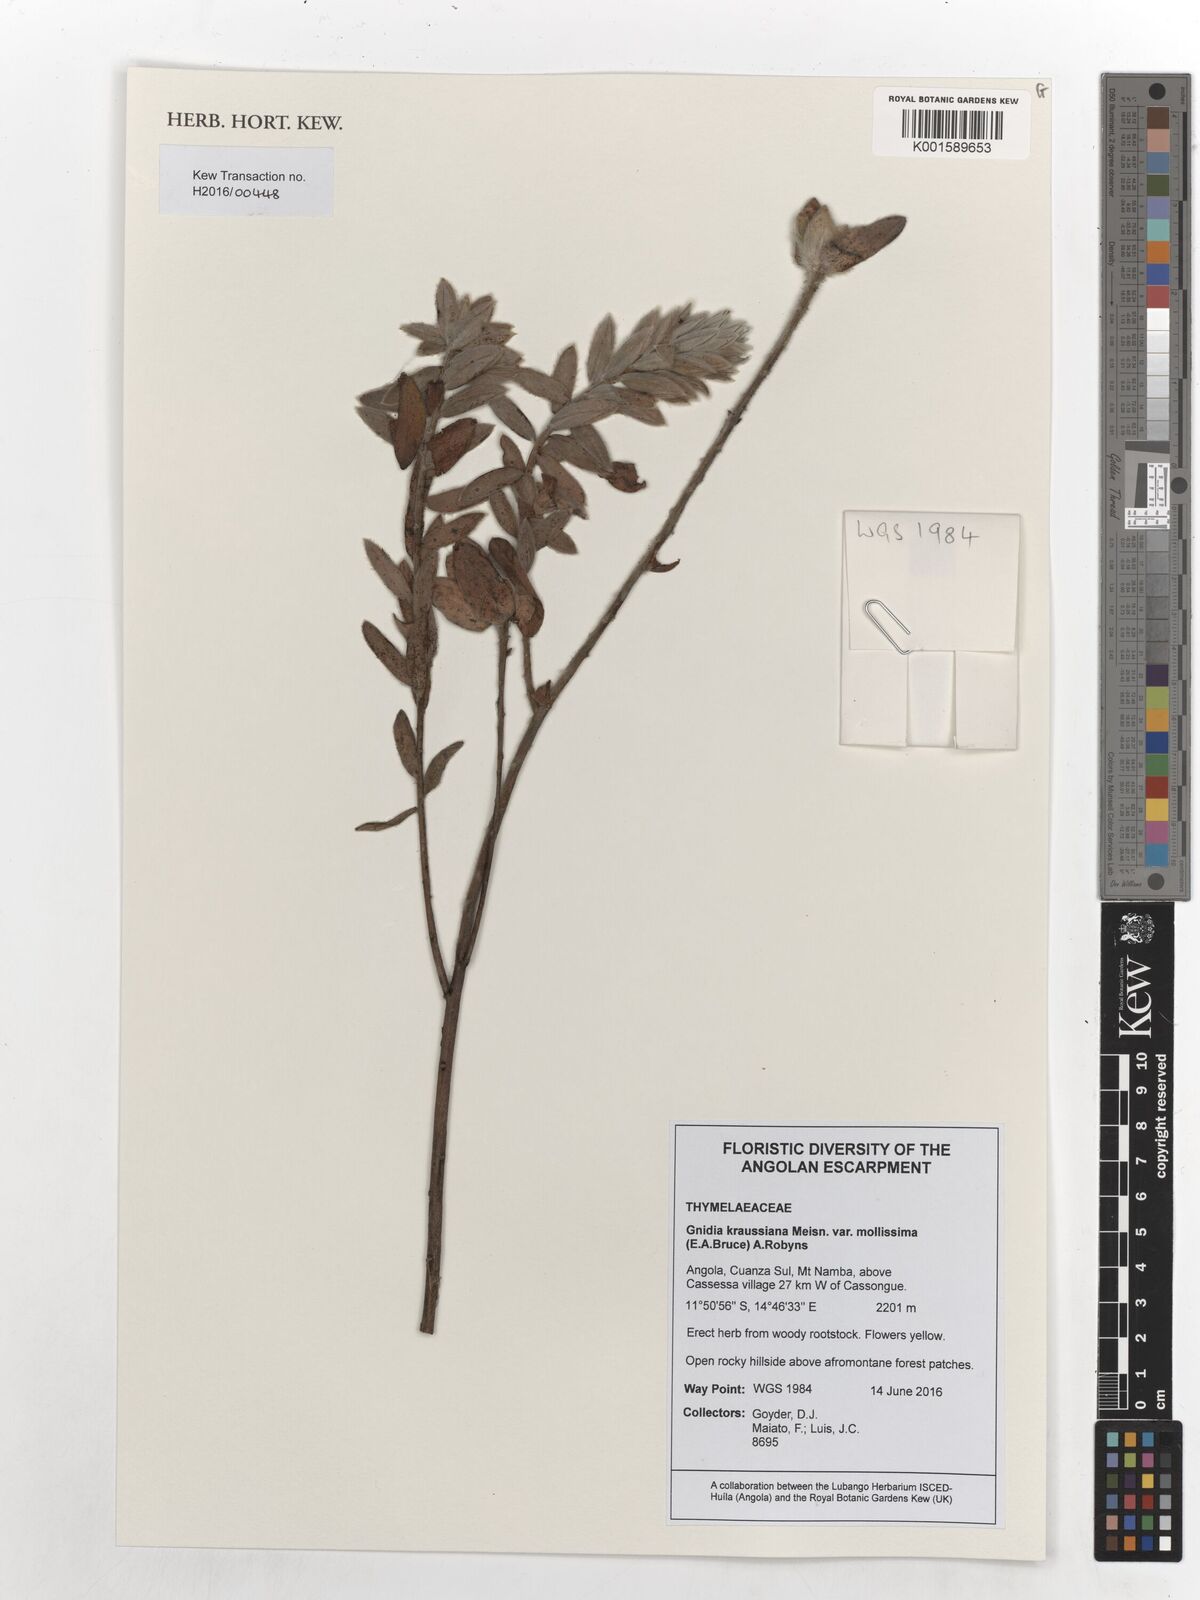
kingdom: Plantae
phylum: Tracheophyta
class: Magnoliopsida
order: Malvales
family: Thymelaeaceae
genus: Gnidia
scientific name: Gnidia kraussiana
